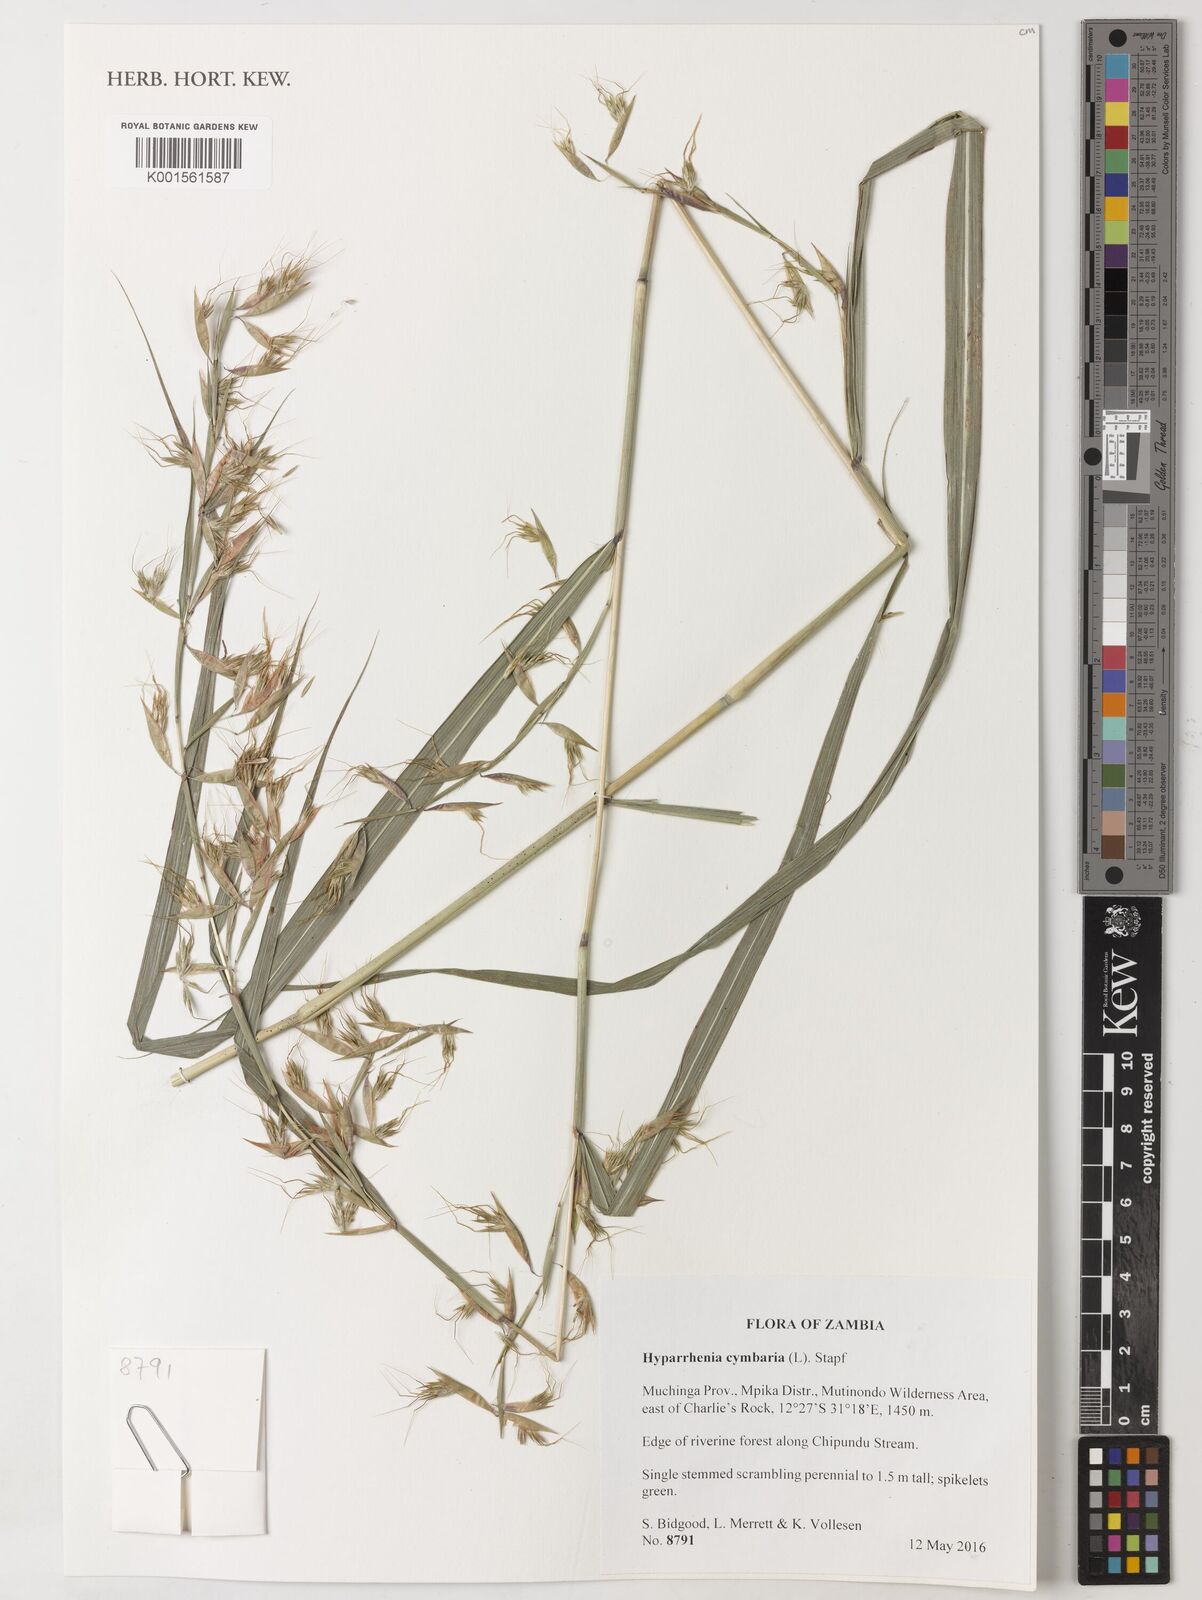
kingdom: Plantae
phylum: Tracheophyta
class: Liliopsida
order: Poales
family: Poaceae
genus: Hyparrhenia
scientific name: Hyparrhenia cymbaria
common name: Boat thatching grass
